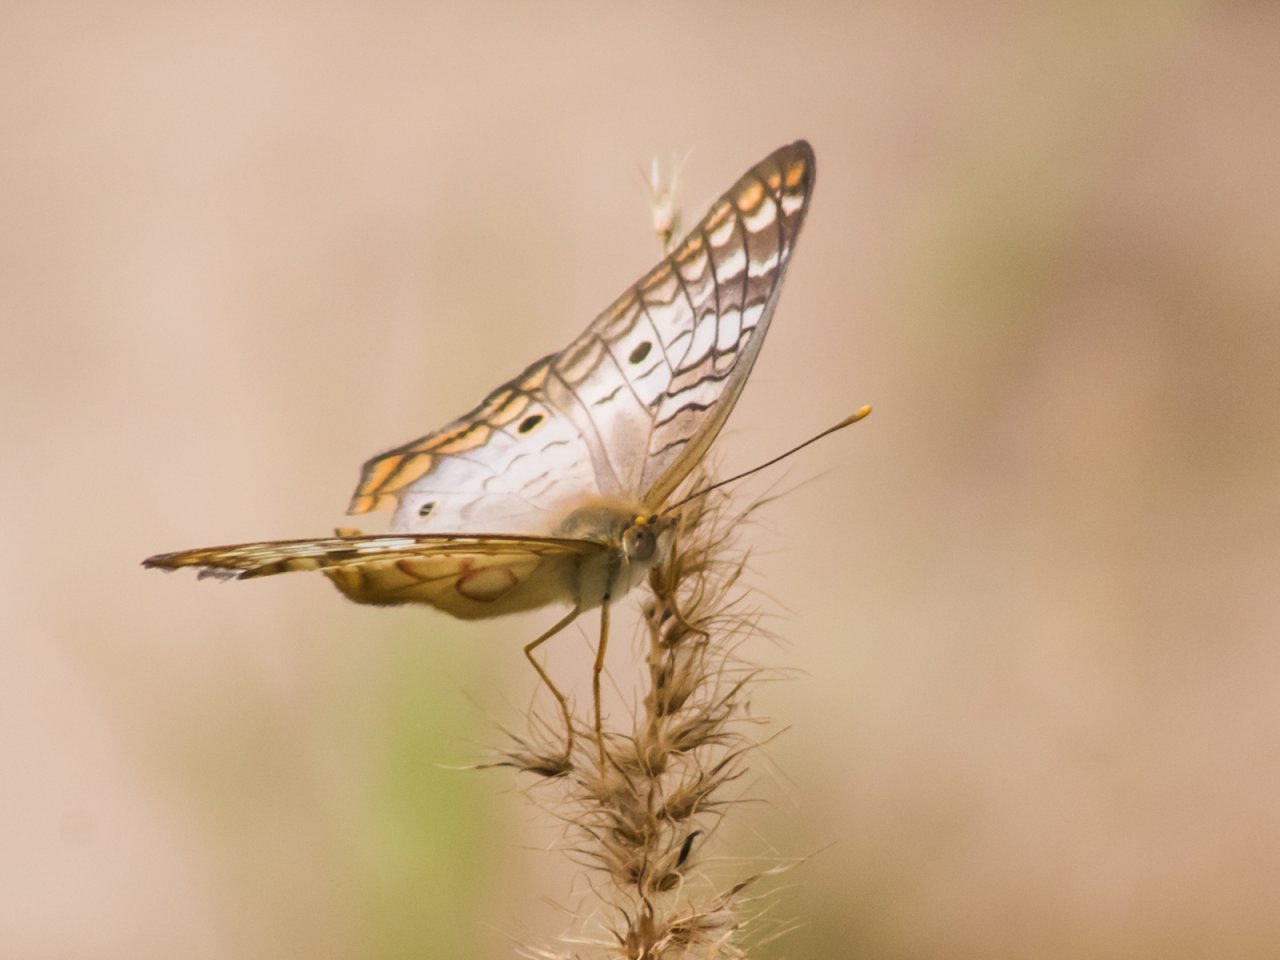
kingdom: Animalia
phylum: Arthropoda
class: Insecta
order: Lepidoptera
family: Nymphalidae
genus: Anartia
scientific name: Anartia jatrophae
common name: White Peacock
